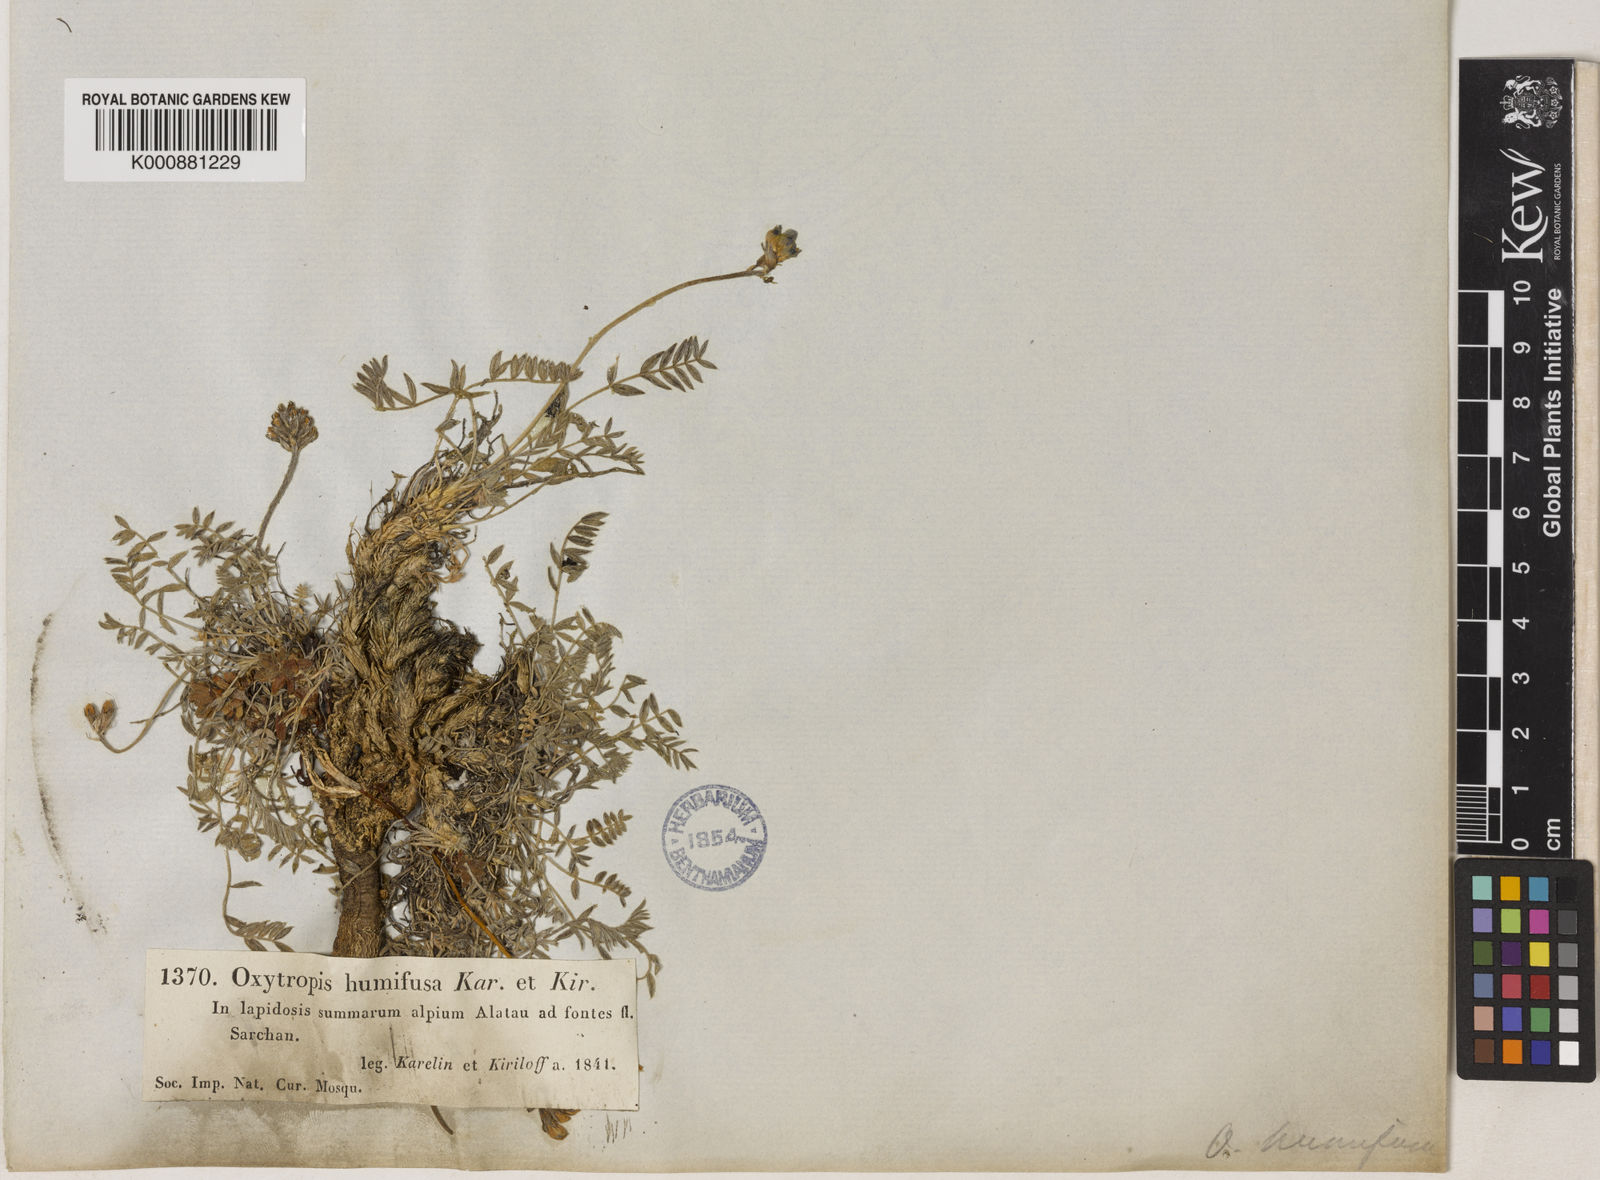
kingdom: Plantae
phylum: Tracheophyta
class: Magnoliopsida
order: Fabales
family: Fabaceae
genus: Oxytropis
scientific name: Oxytropis humifusa
